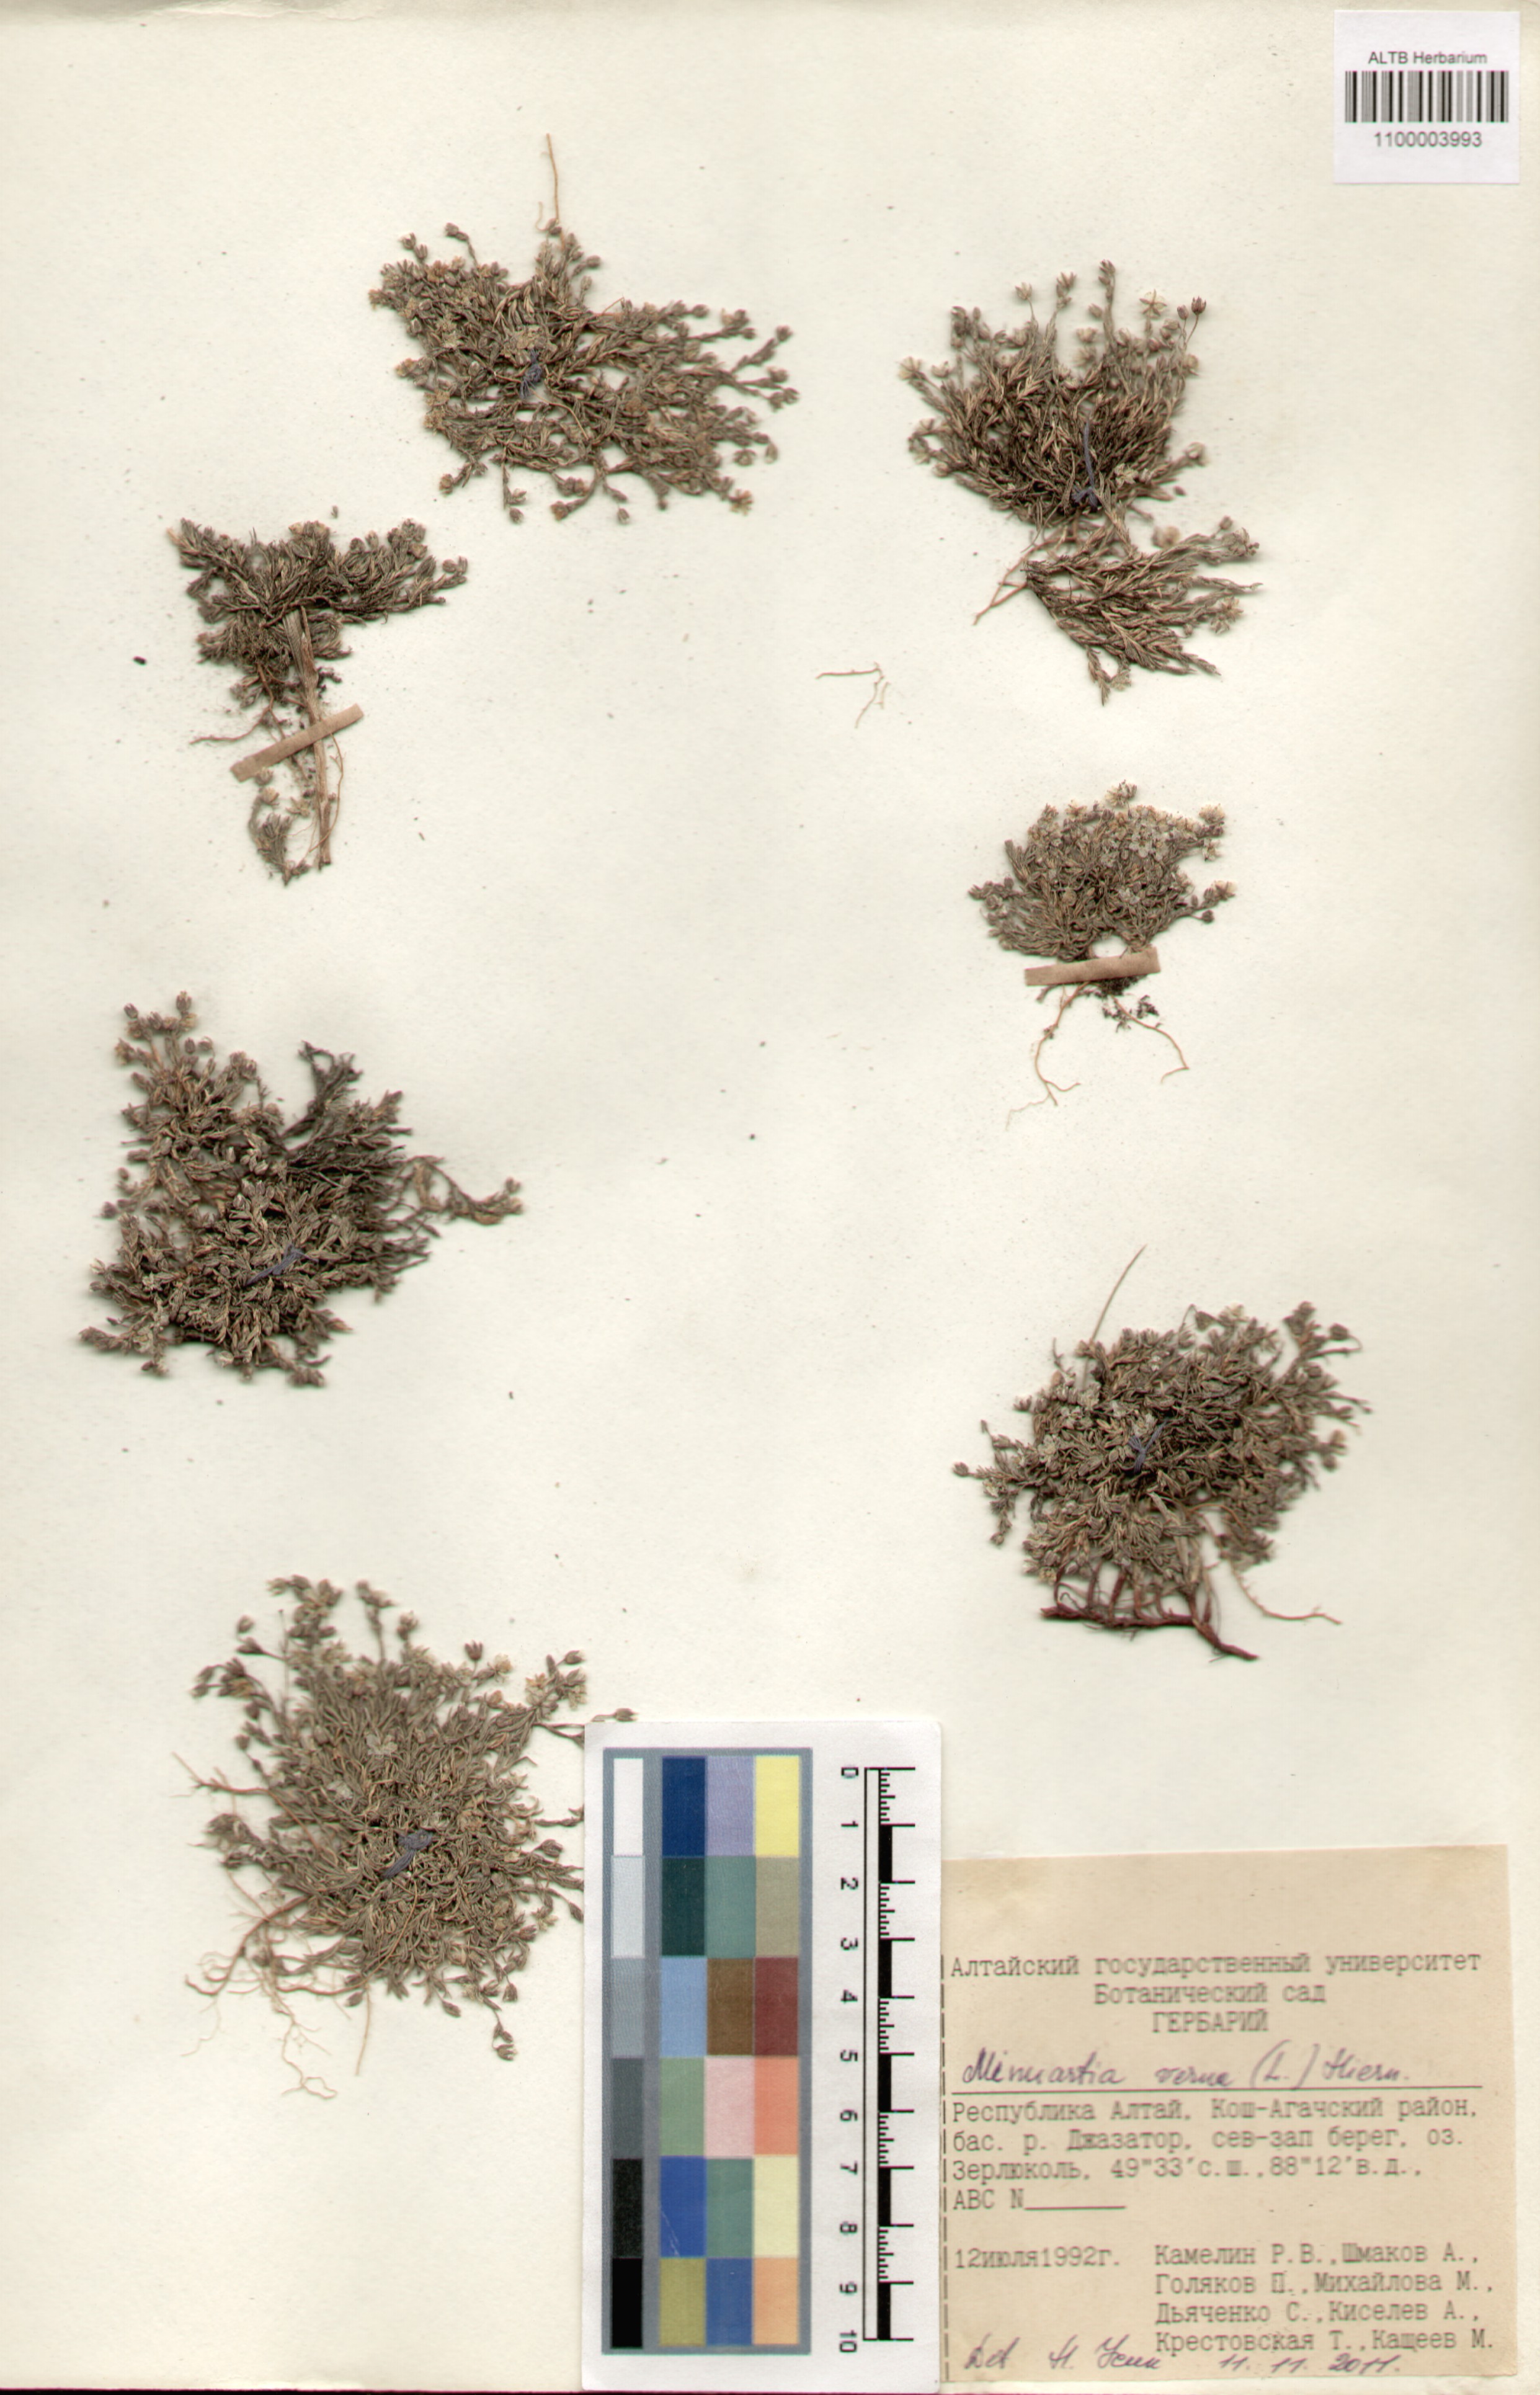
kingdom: Plantae
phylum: Tracheophyta
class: Magnoliopsida
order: Caryophyllales
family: Caryophyllaceae
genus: Sabulina
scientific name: Sabulina verna
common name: Spring sandwort
